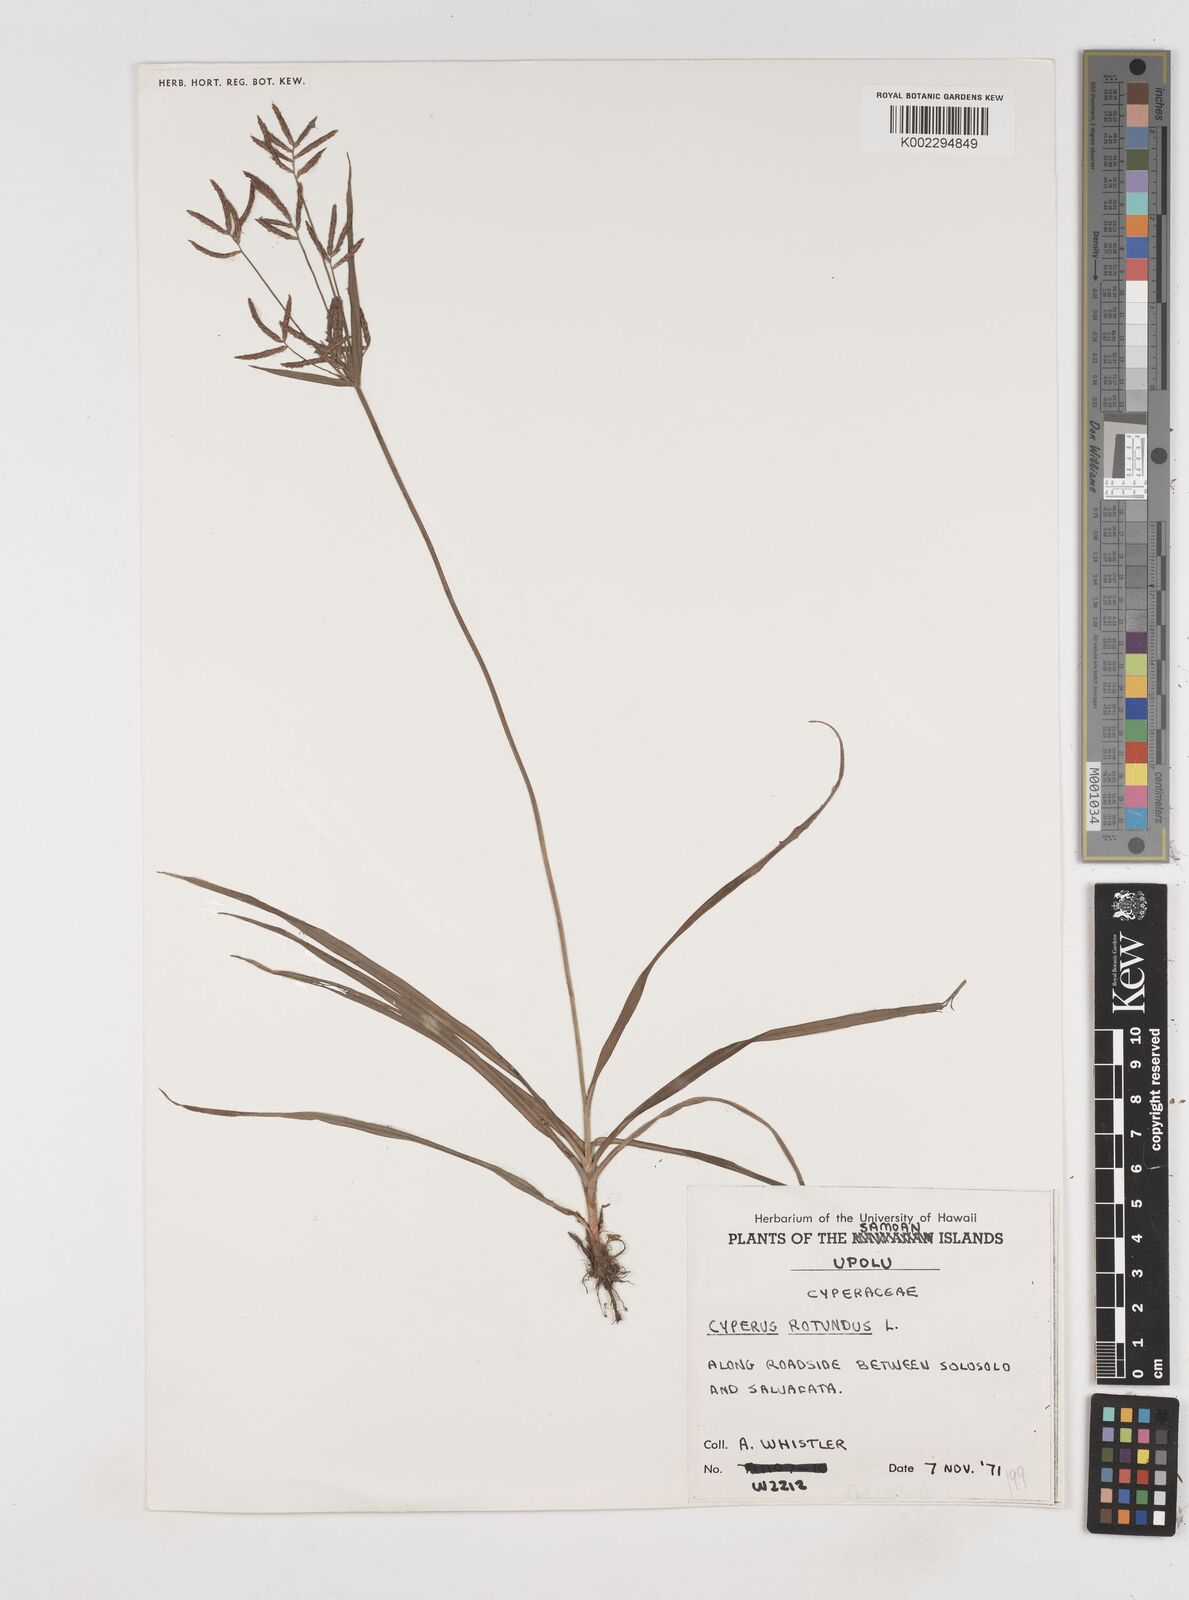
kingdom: Plantae
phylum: Tracheophyta
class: Liliopsida
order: Poales
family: Cyperaceae
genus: Cyperus
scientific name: Cyperus rotundus
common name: Nutgrass
